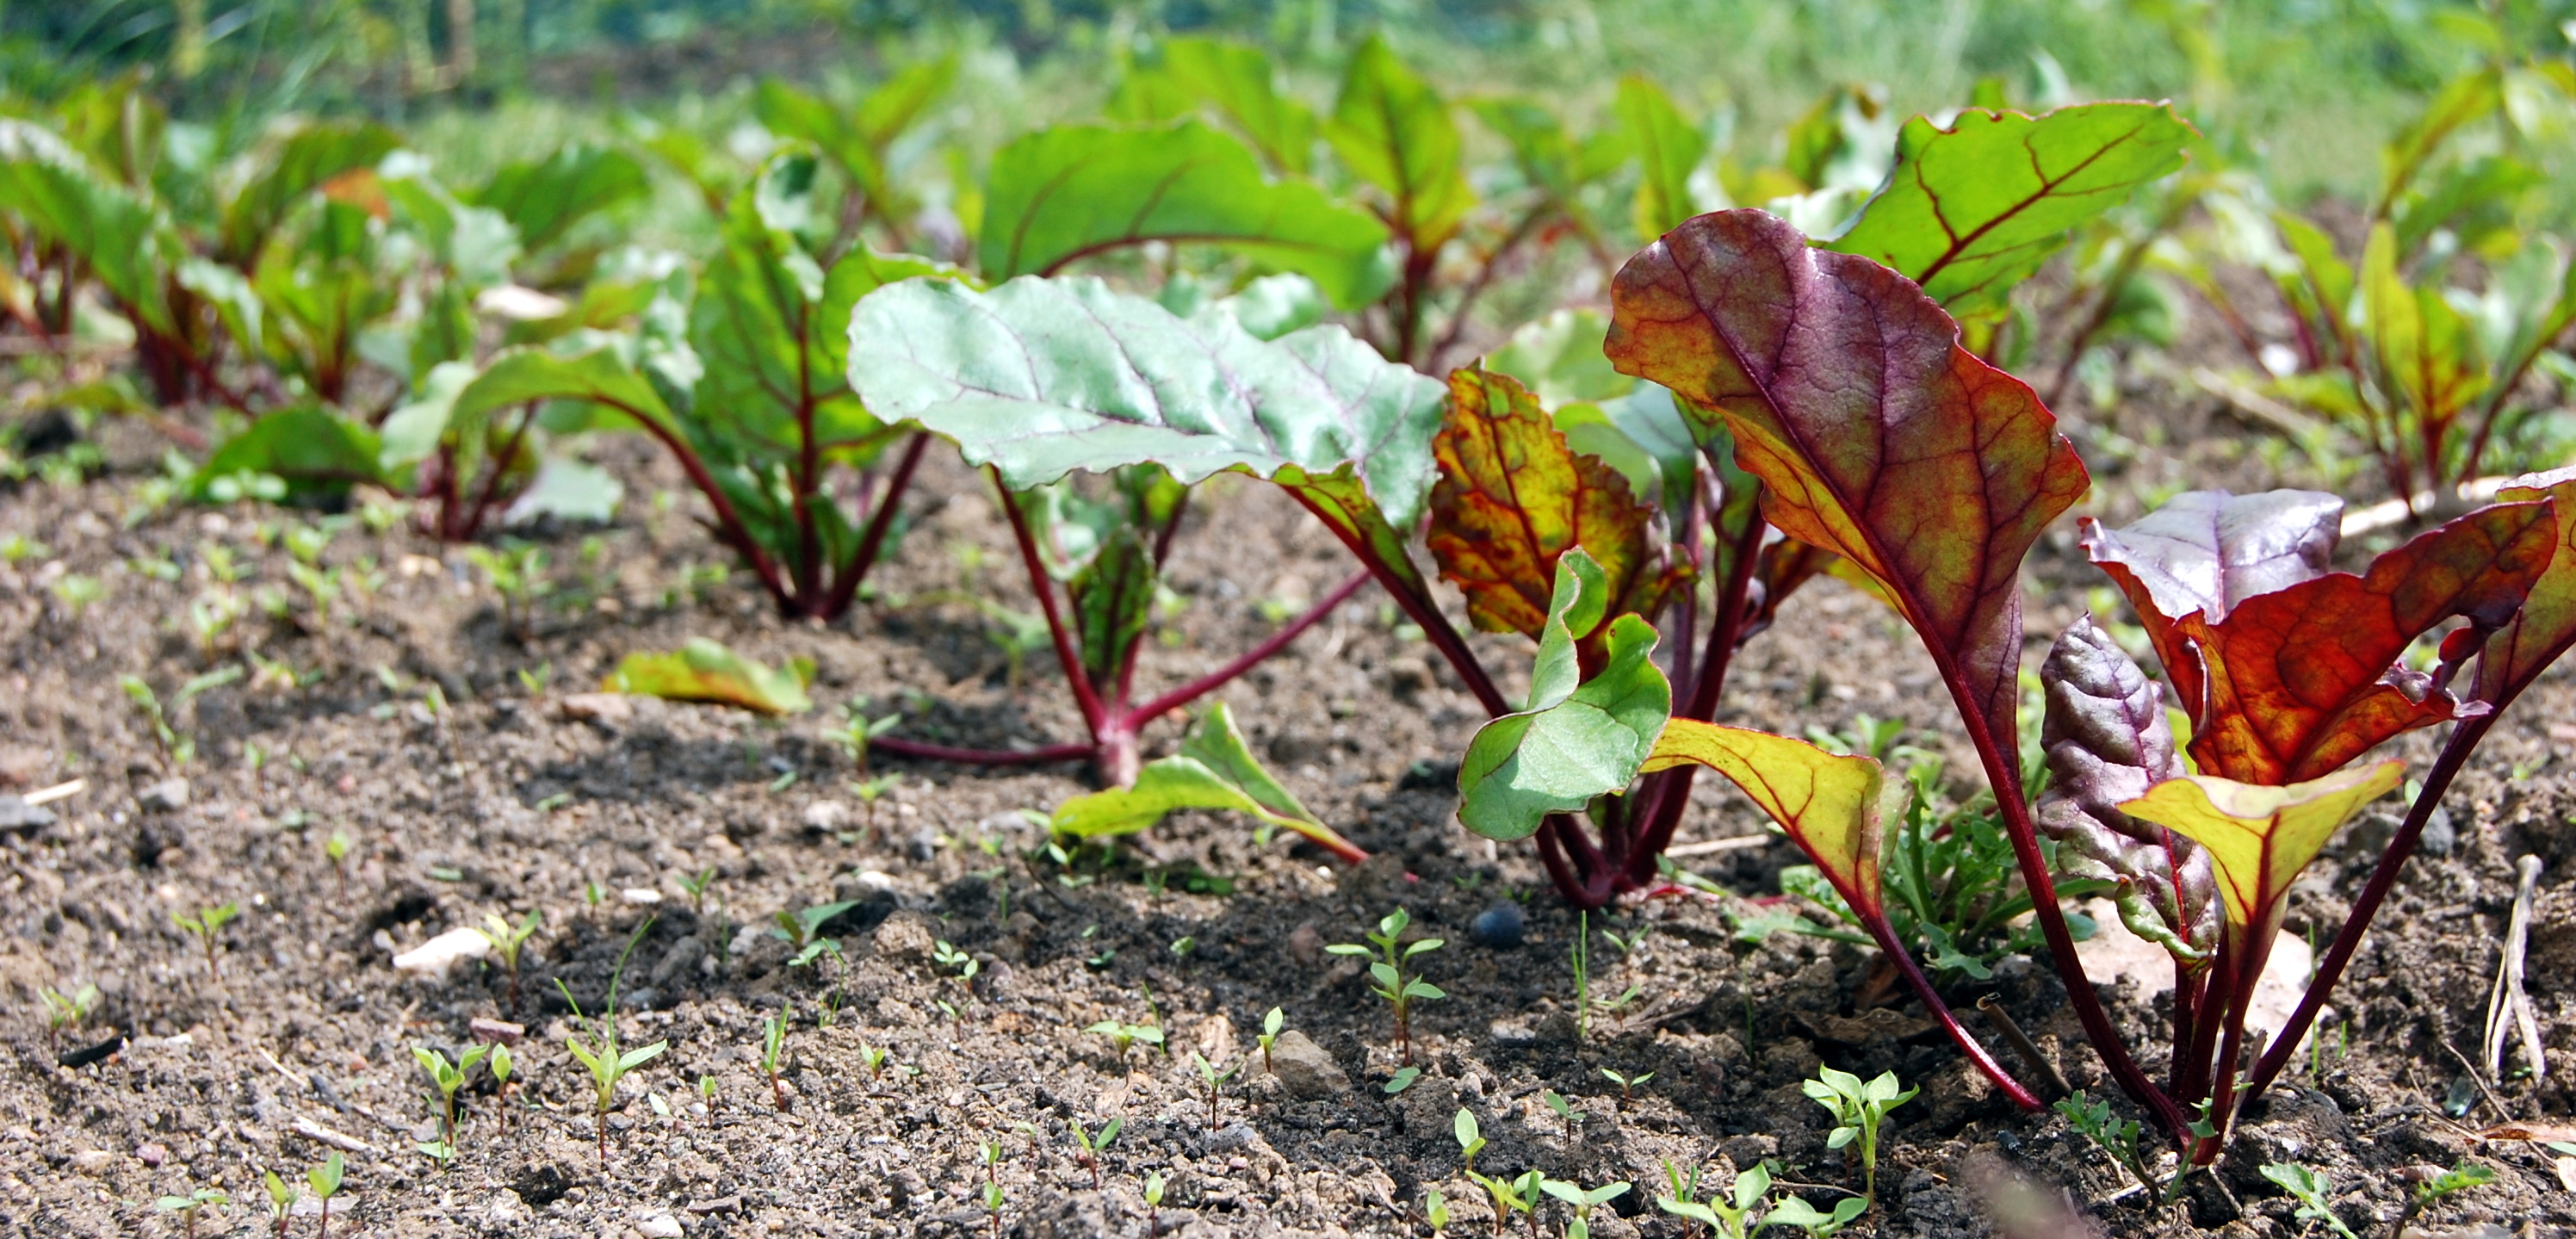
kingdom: Plantae
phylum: Tracheophyta
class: Magnoliopsida
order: Caryophyllales
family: Amaranthaceae
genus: Beta
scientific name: Beta vulgaris
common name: Beet
